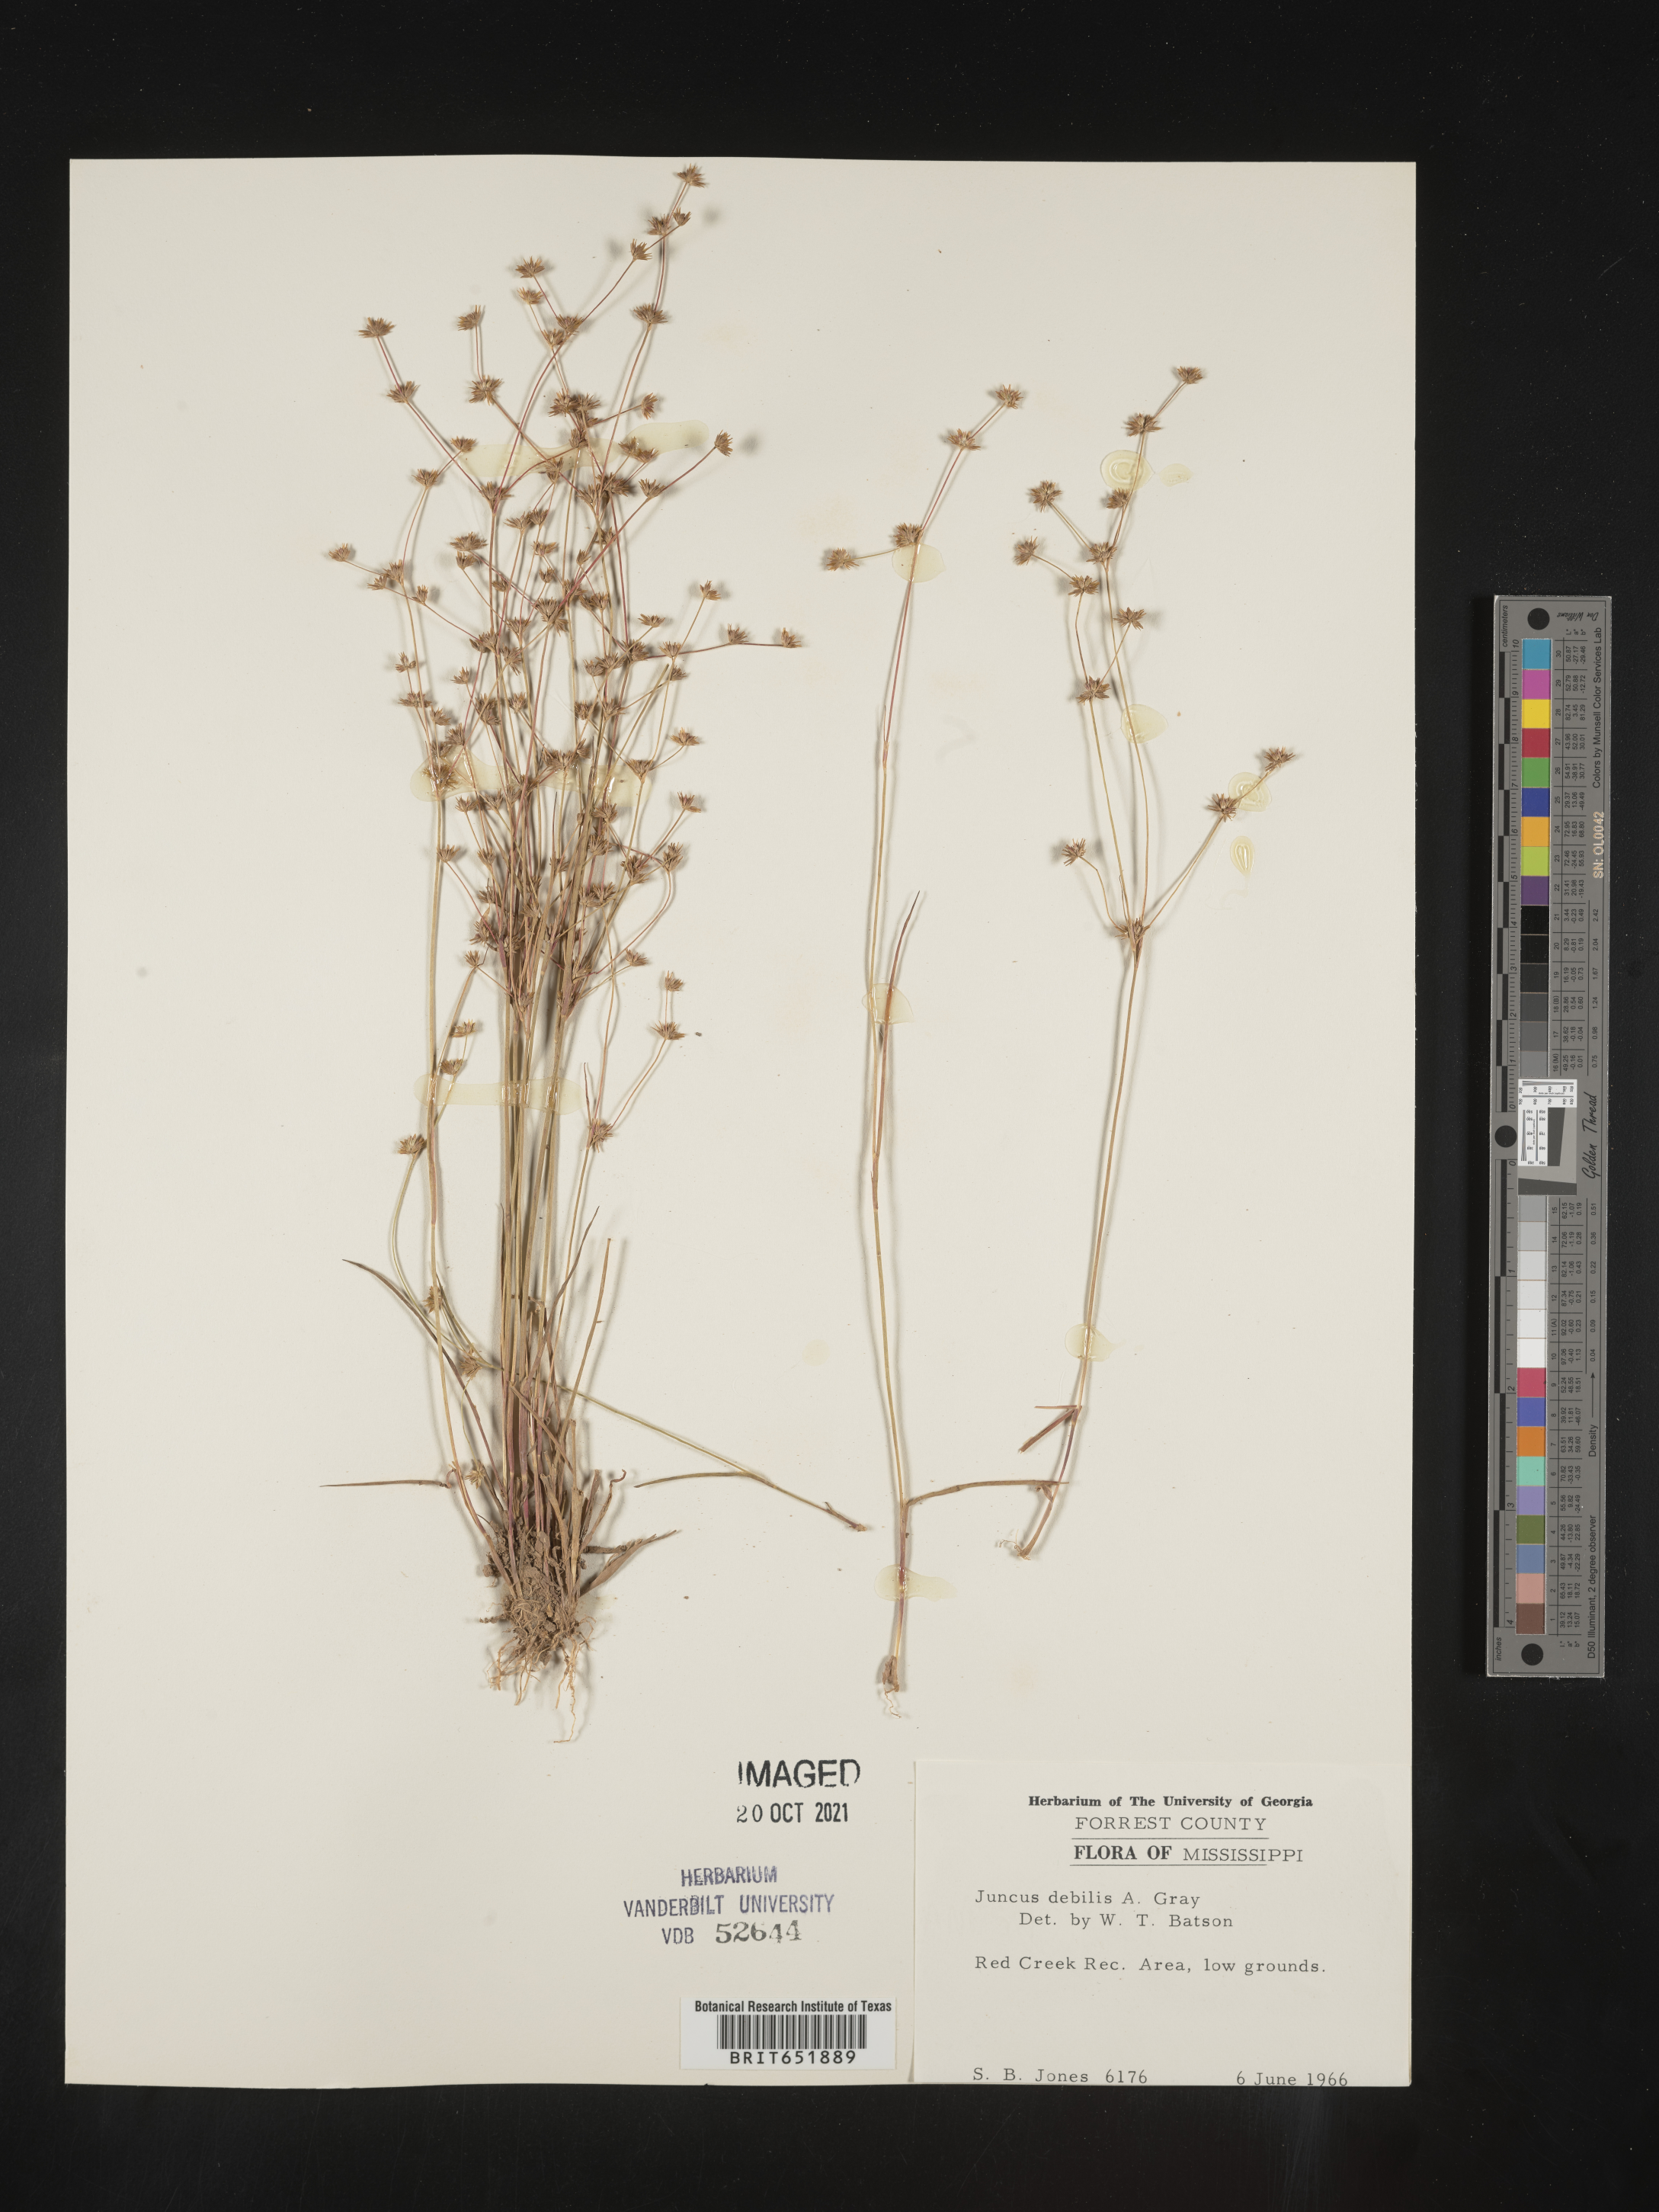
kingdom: Plantae
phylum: Tracheophyta
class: Liliopsida
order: Poales
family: Juncaceae
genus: Juncus
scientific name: Juncus debilis
